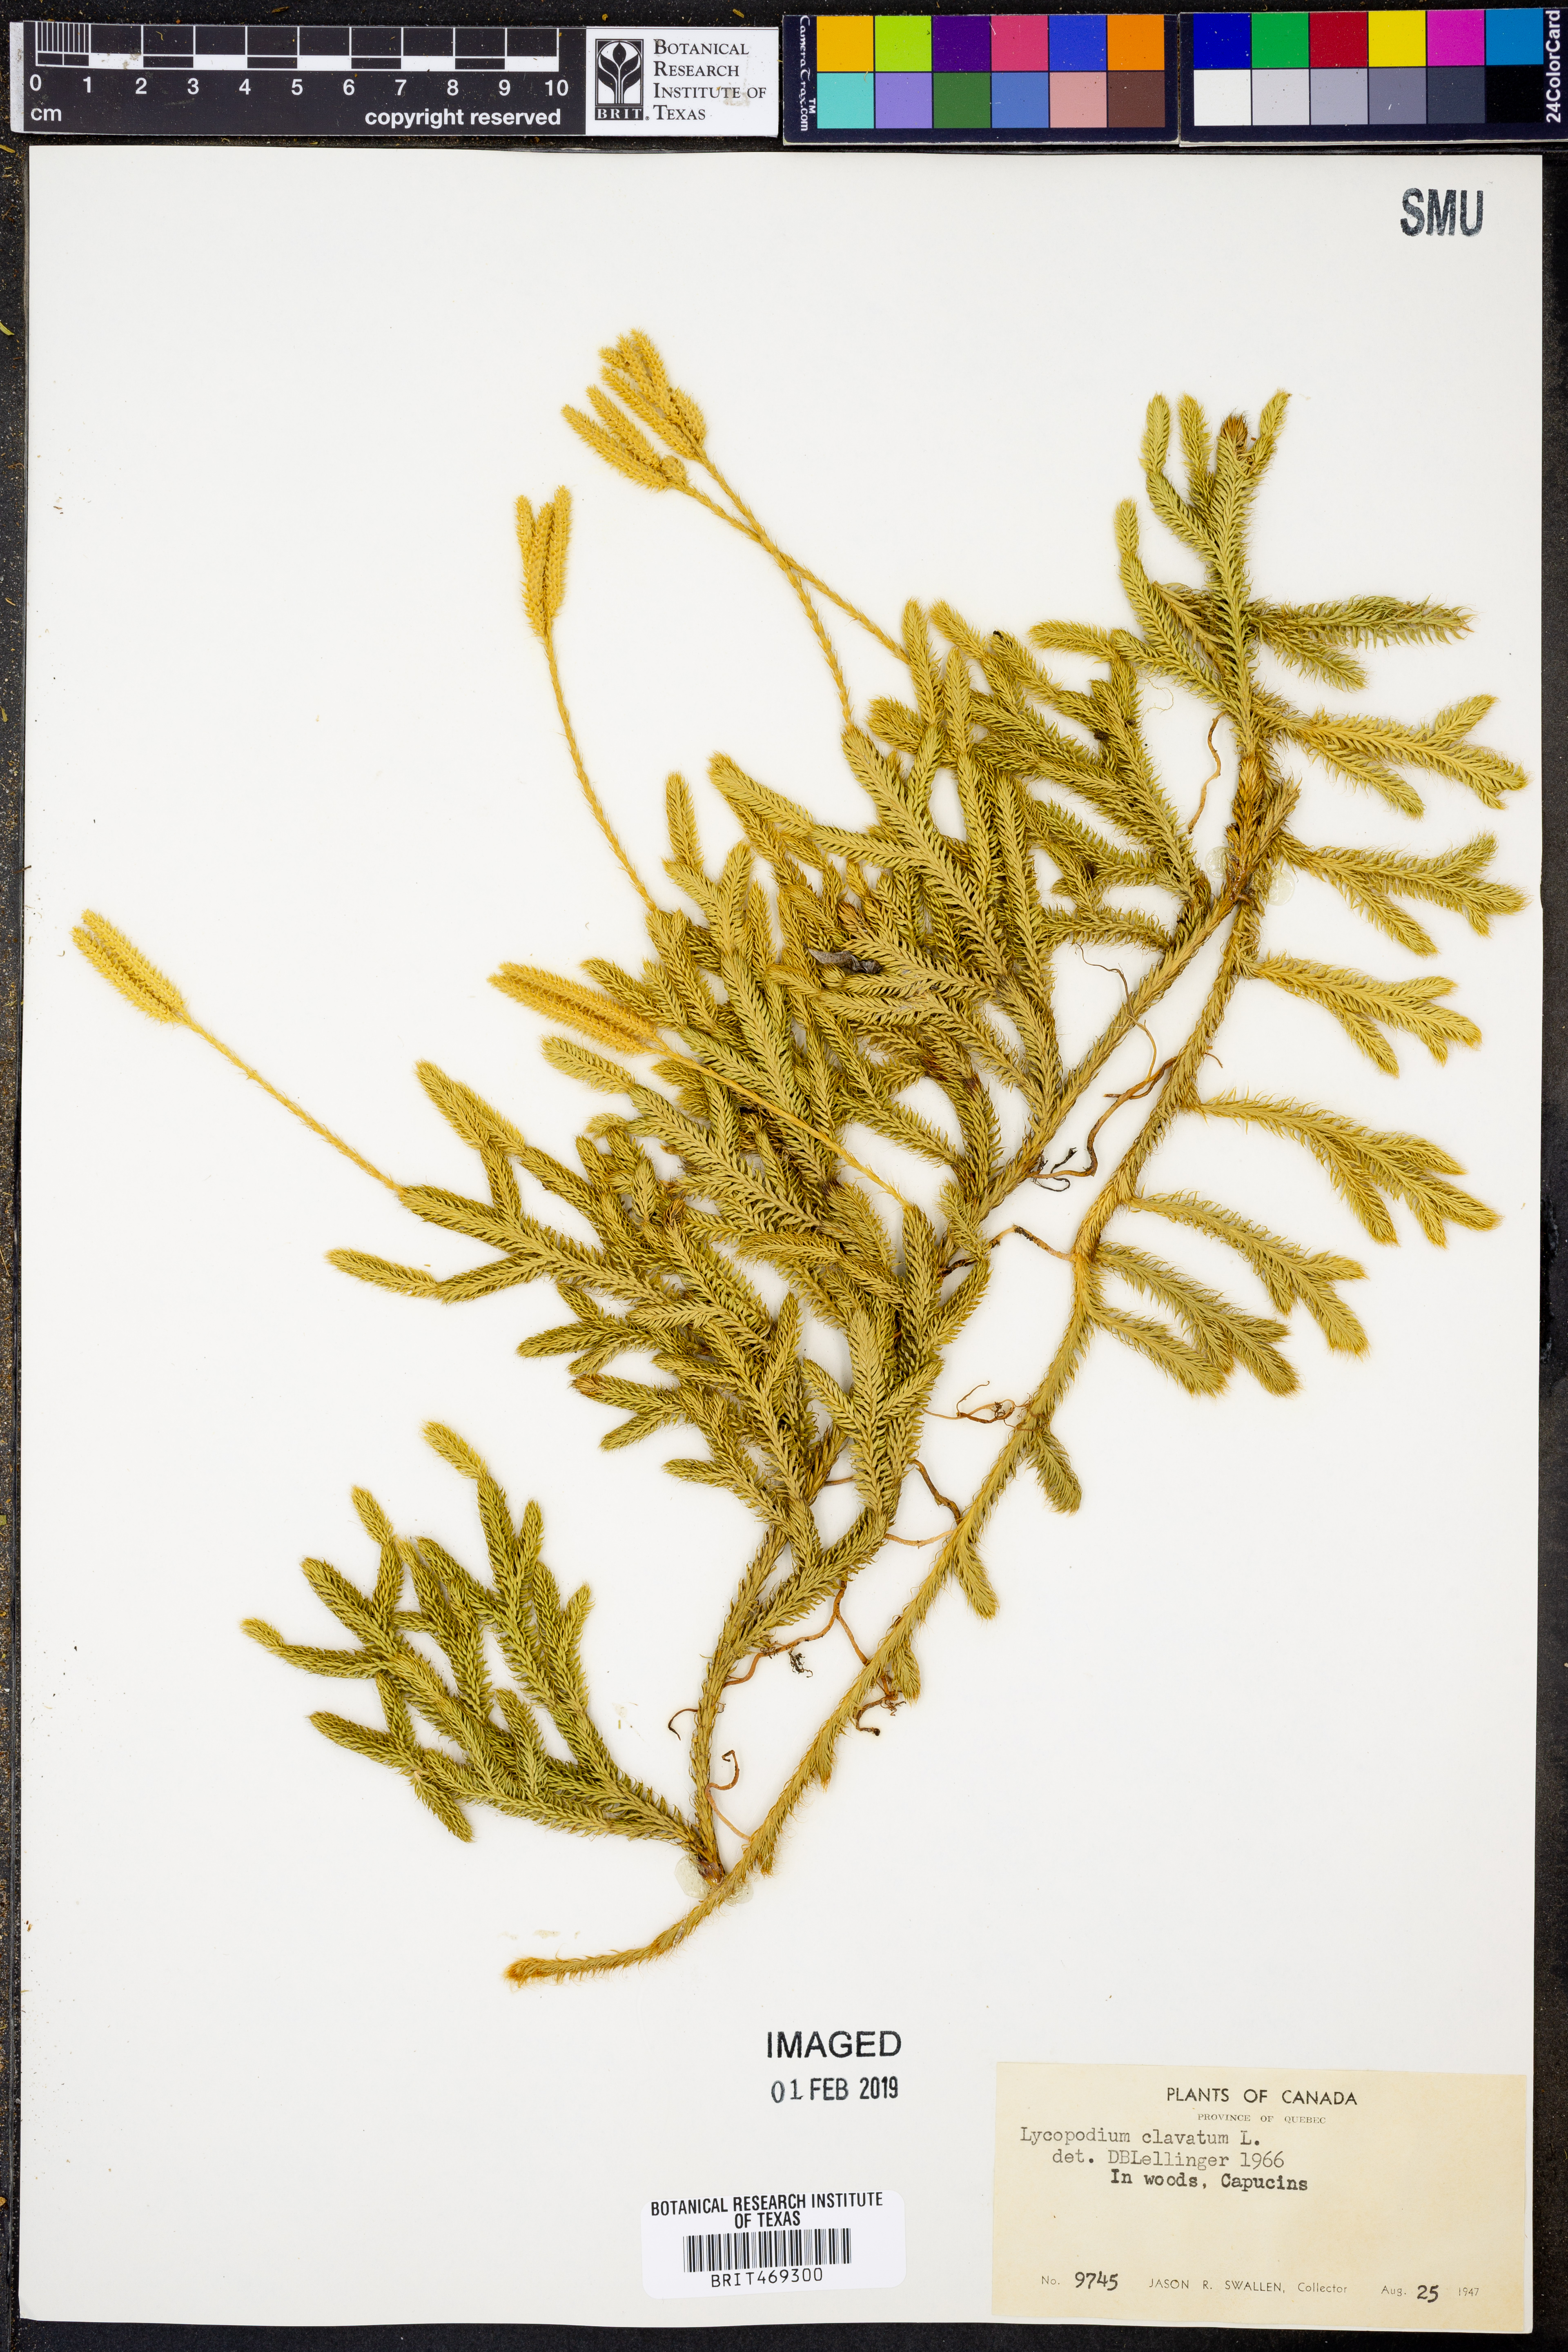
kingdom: Plantae
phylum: Tracheophyta
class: Lycopodiopsida
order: Lycopodiales
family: Lycopodiaceae
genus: Lycopodium
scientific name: Lycopodium clavatum
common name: Stag's-horn clubmoss
